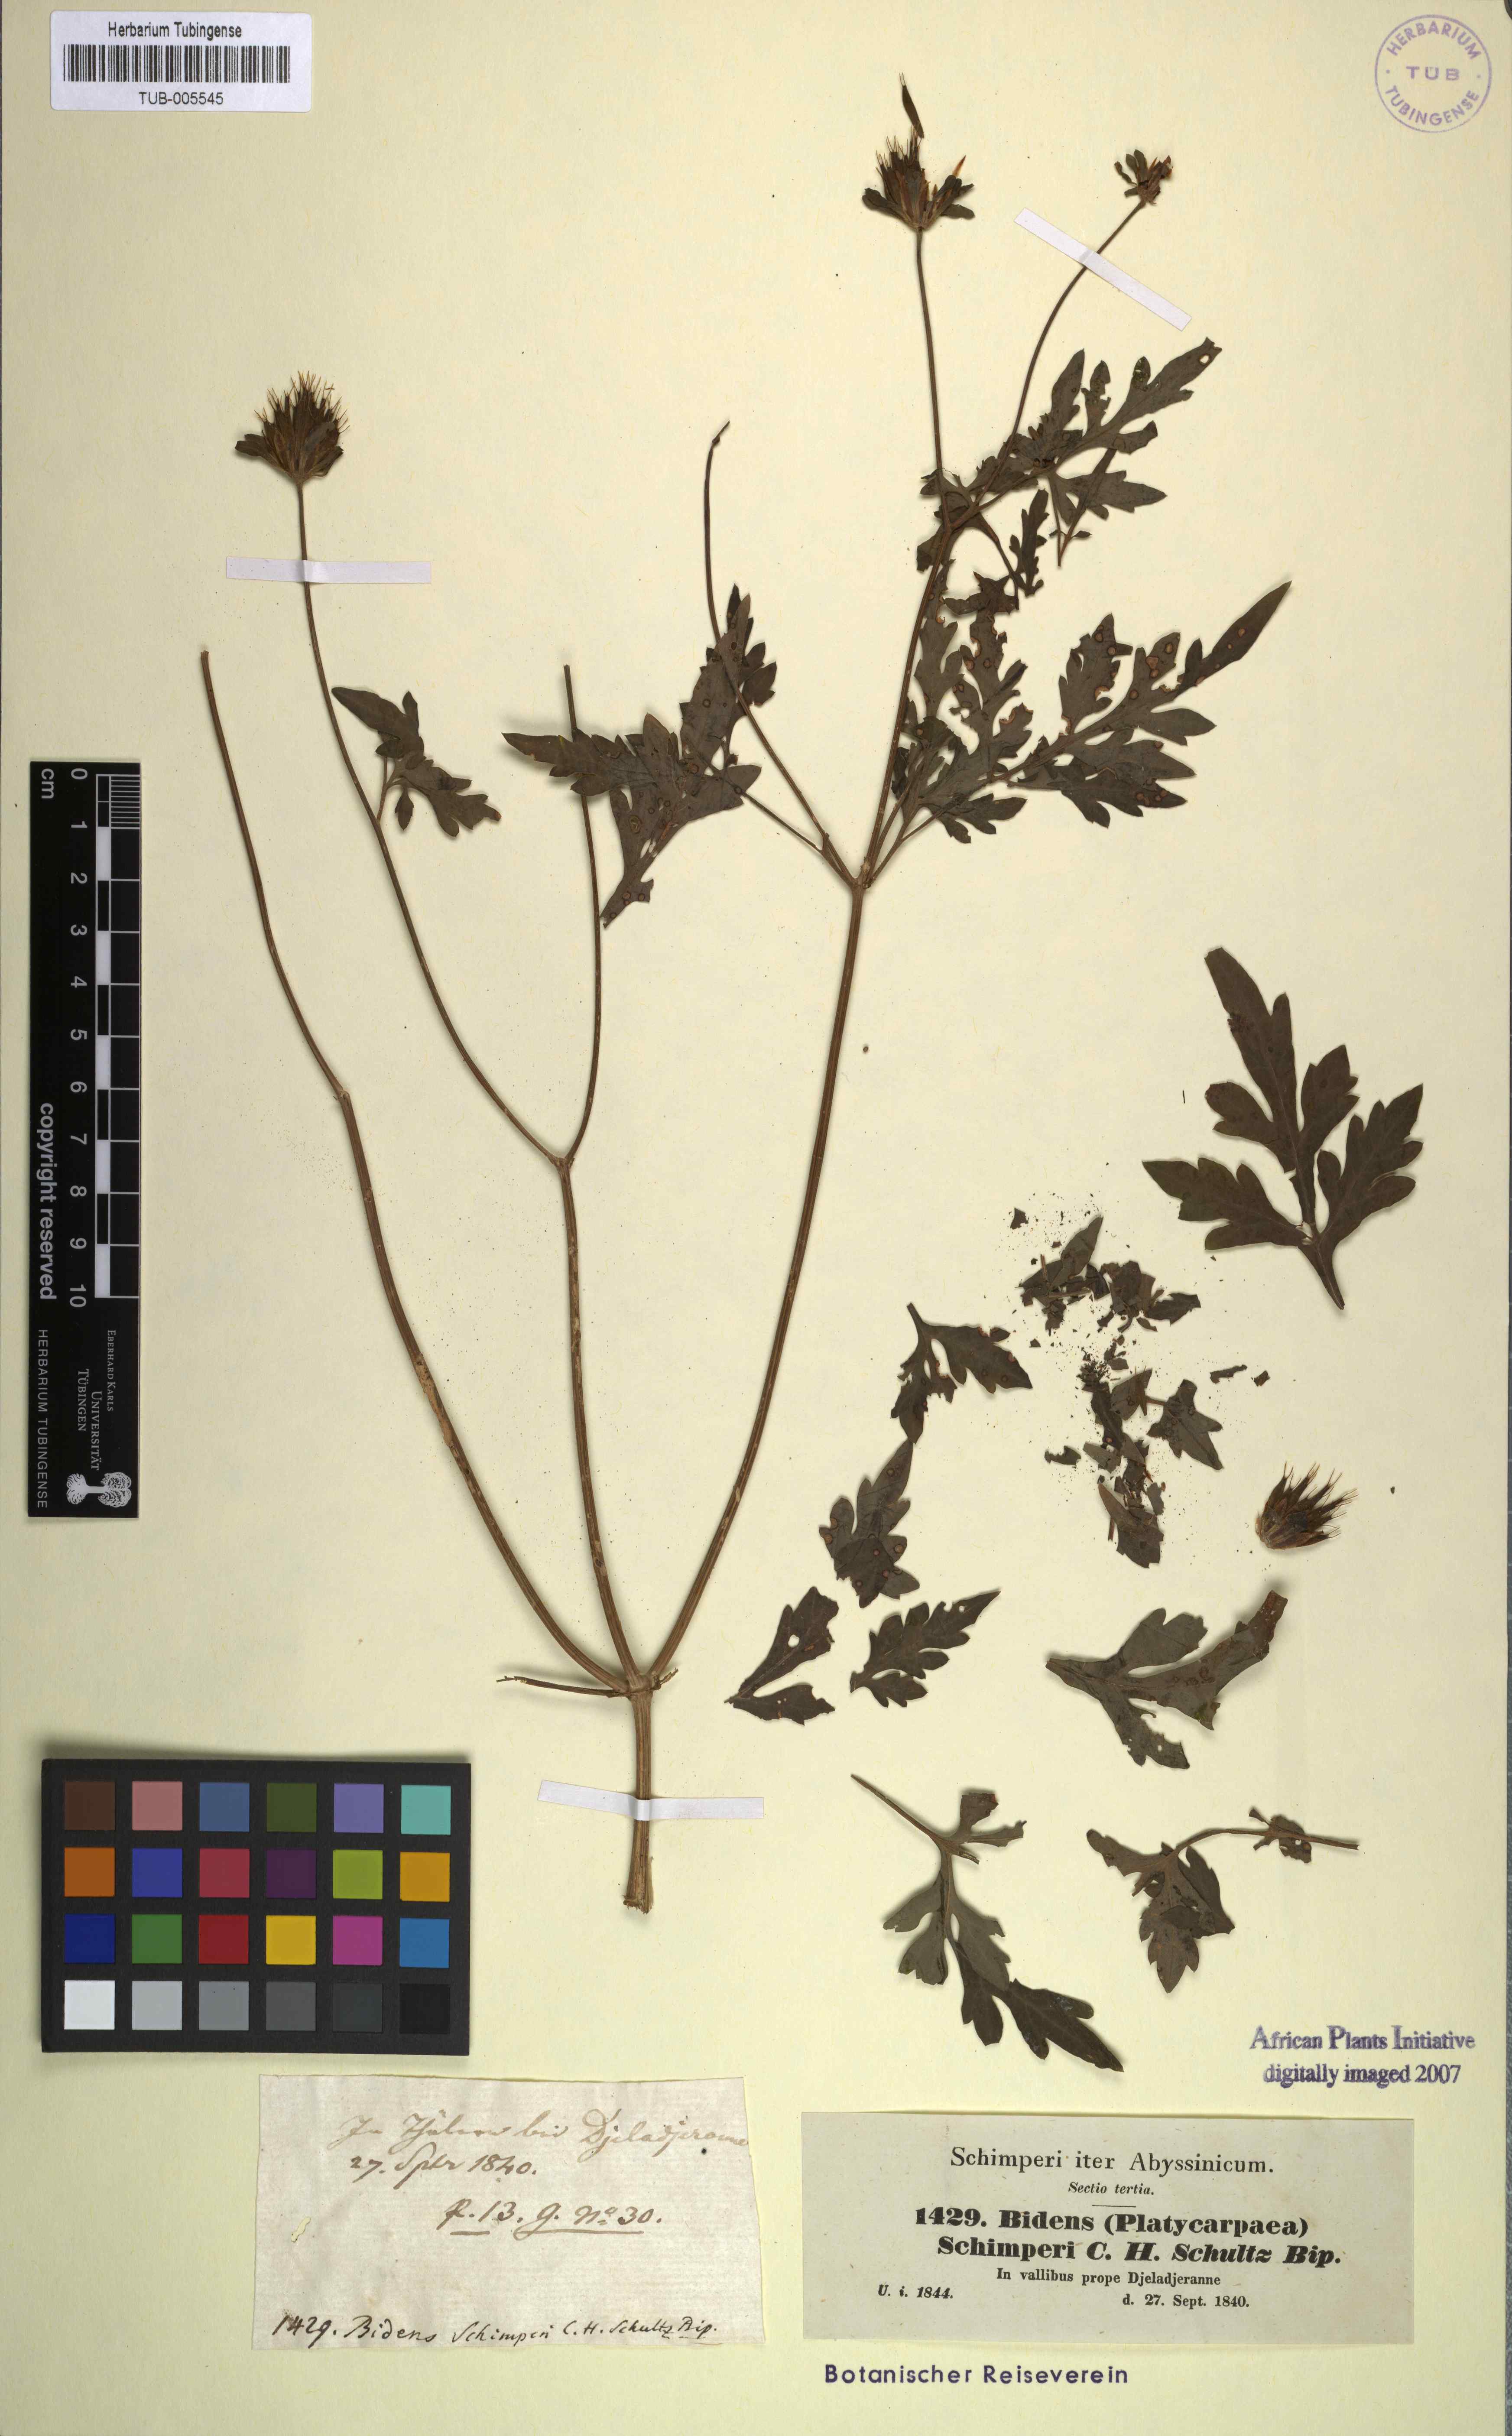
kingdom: Plantae
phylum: Tracheophyta
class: Magnoliopsida
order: Asterales
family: Asteraceae
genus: Bidens
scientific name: Bidens schimperi
